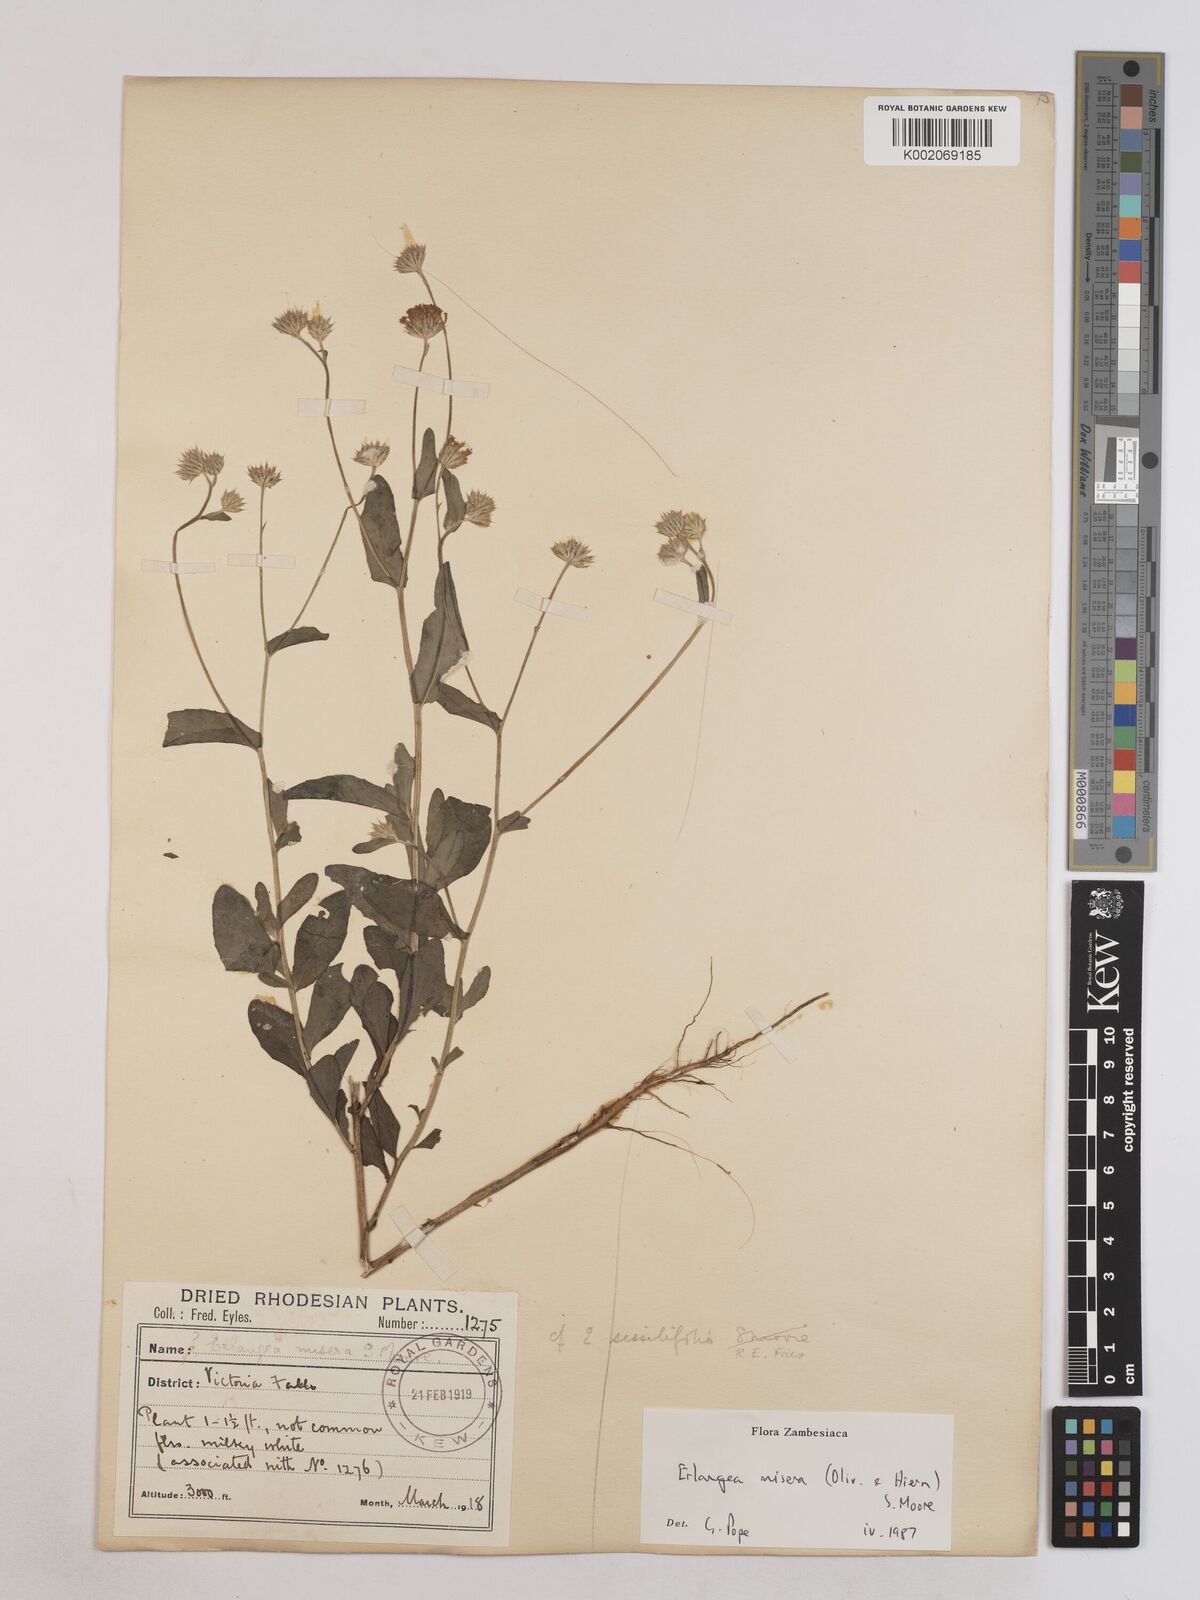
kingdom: Plantae
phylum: Tracheophyta
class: Magnoliopsida
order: Asterales
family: Asteraceae
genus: Erlangea
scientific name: Erlangea misera
